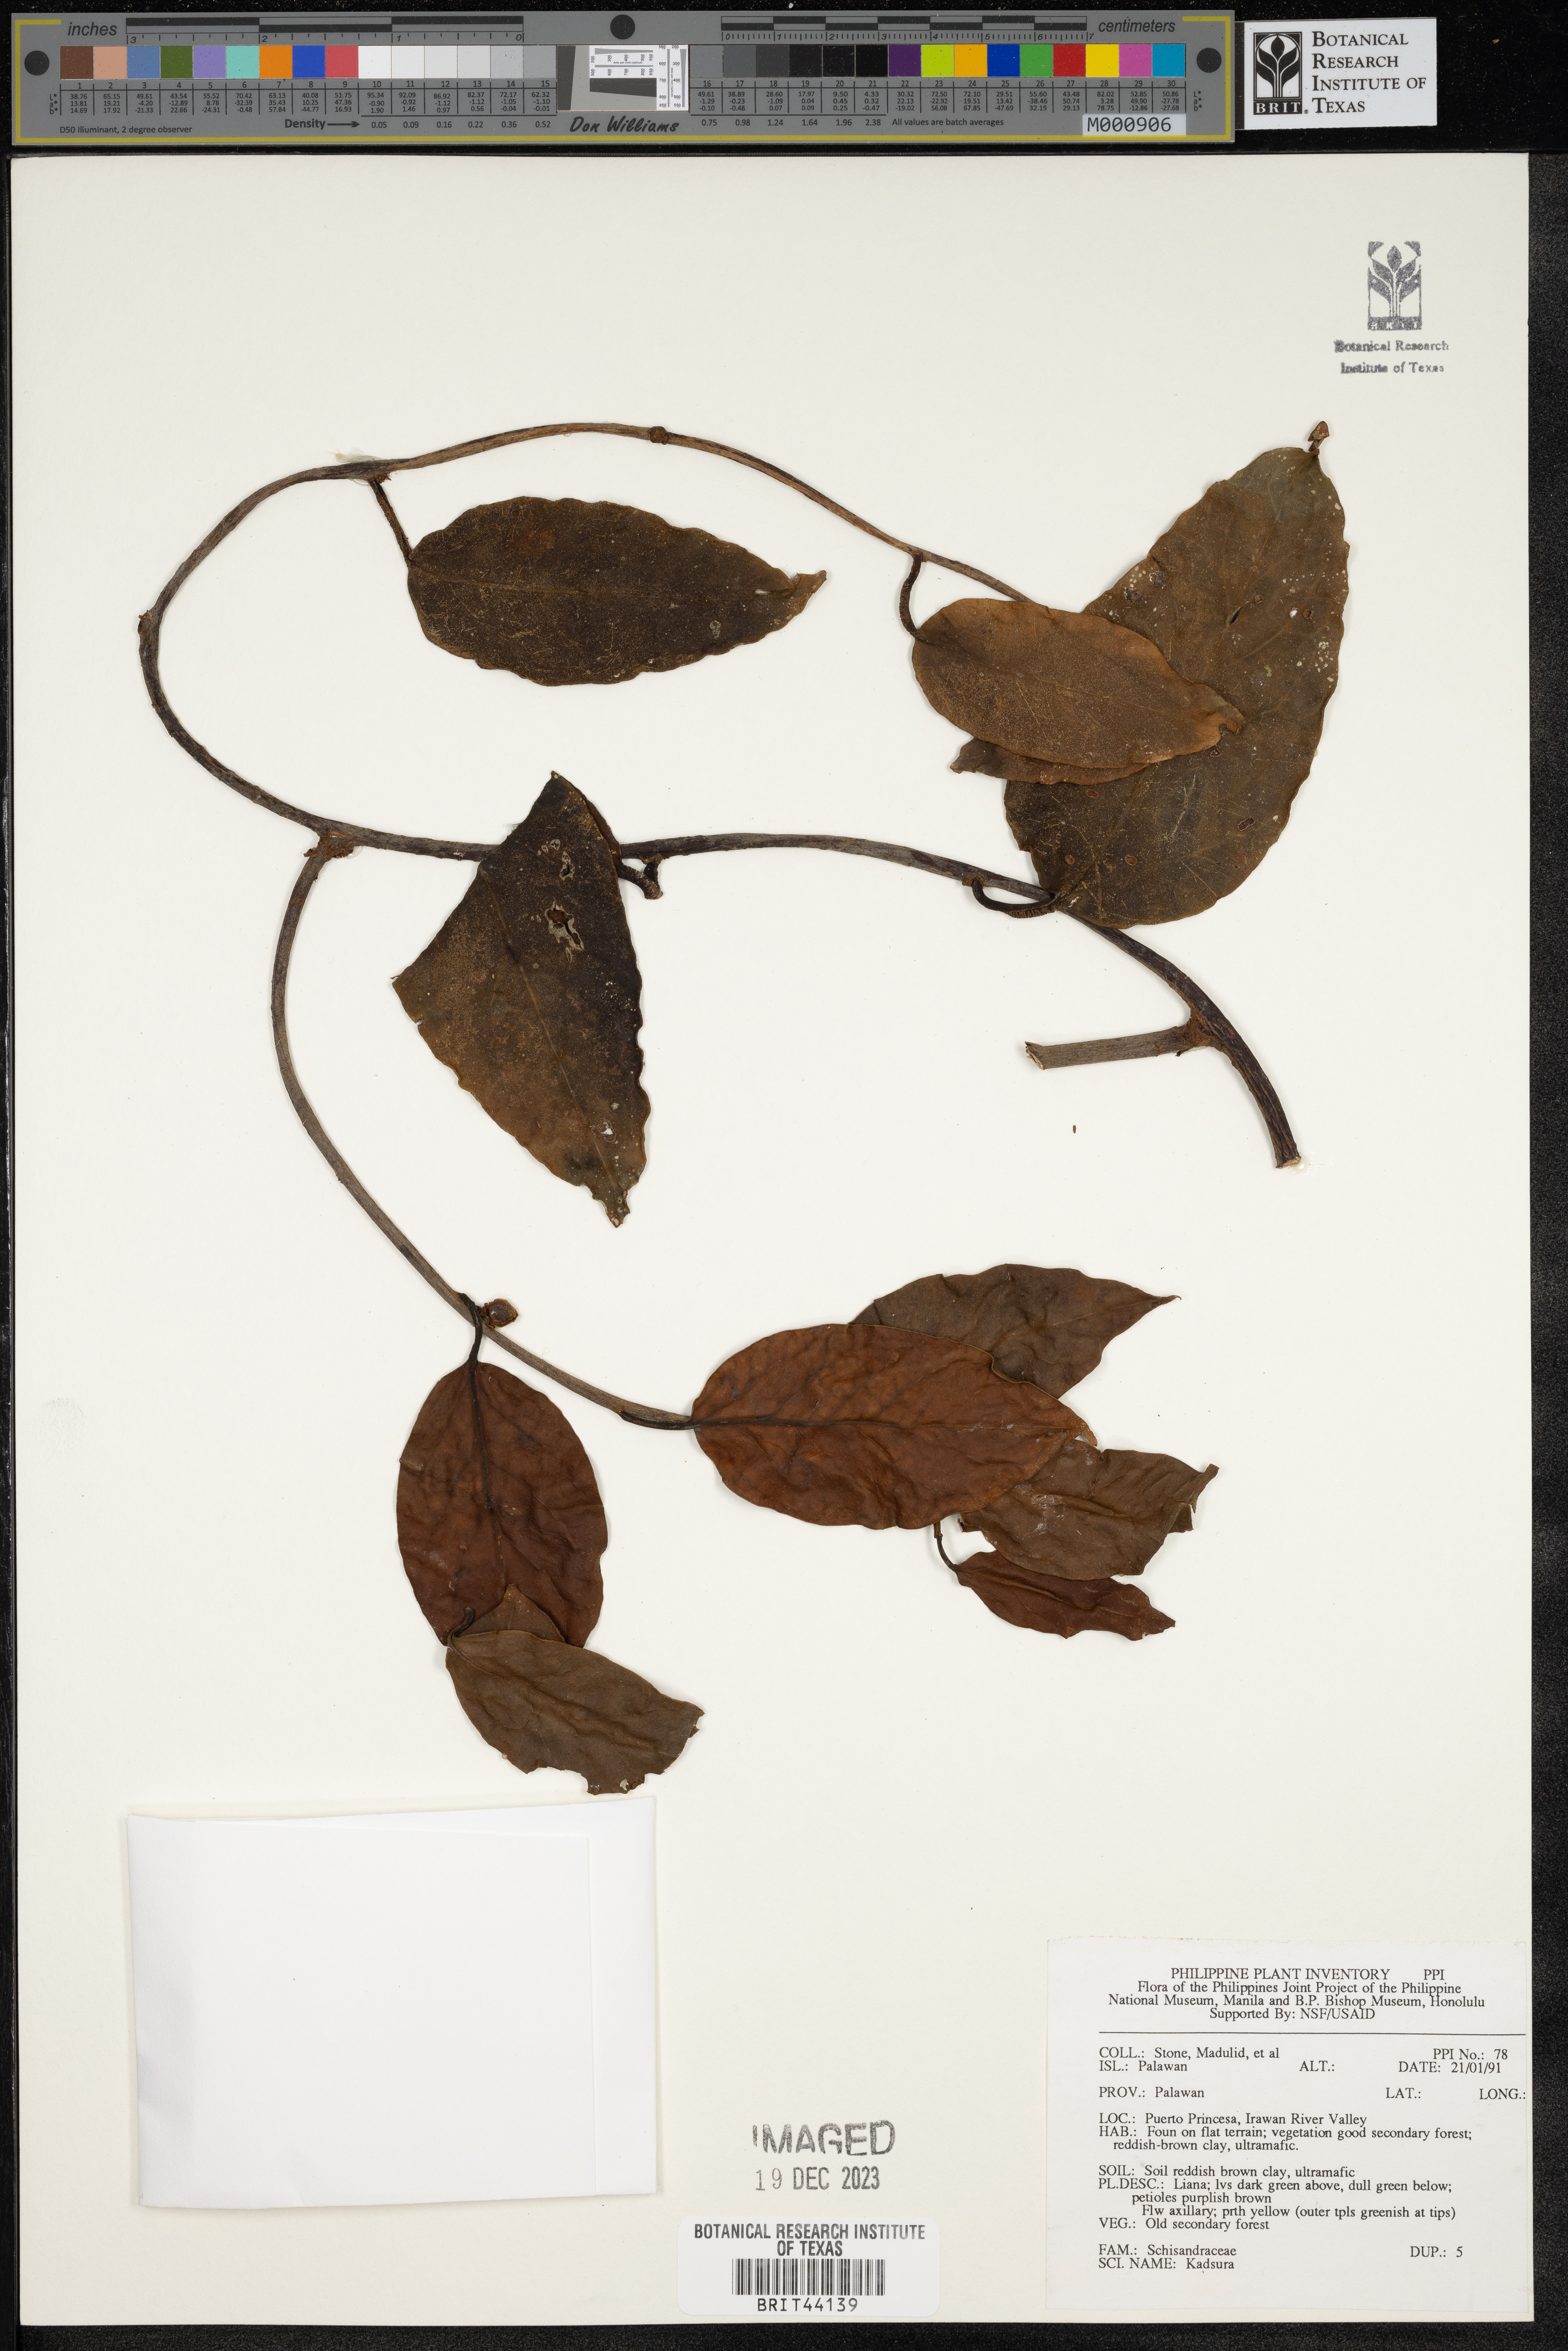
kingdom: Plantae
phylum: Tracheophyta
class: Magnoliopsida
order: Austrobaileyales
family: Schisandraceae
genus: Kadsura
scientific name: Kadsura
